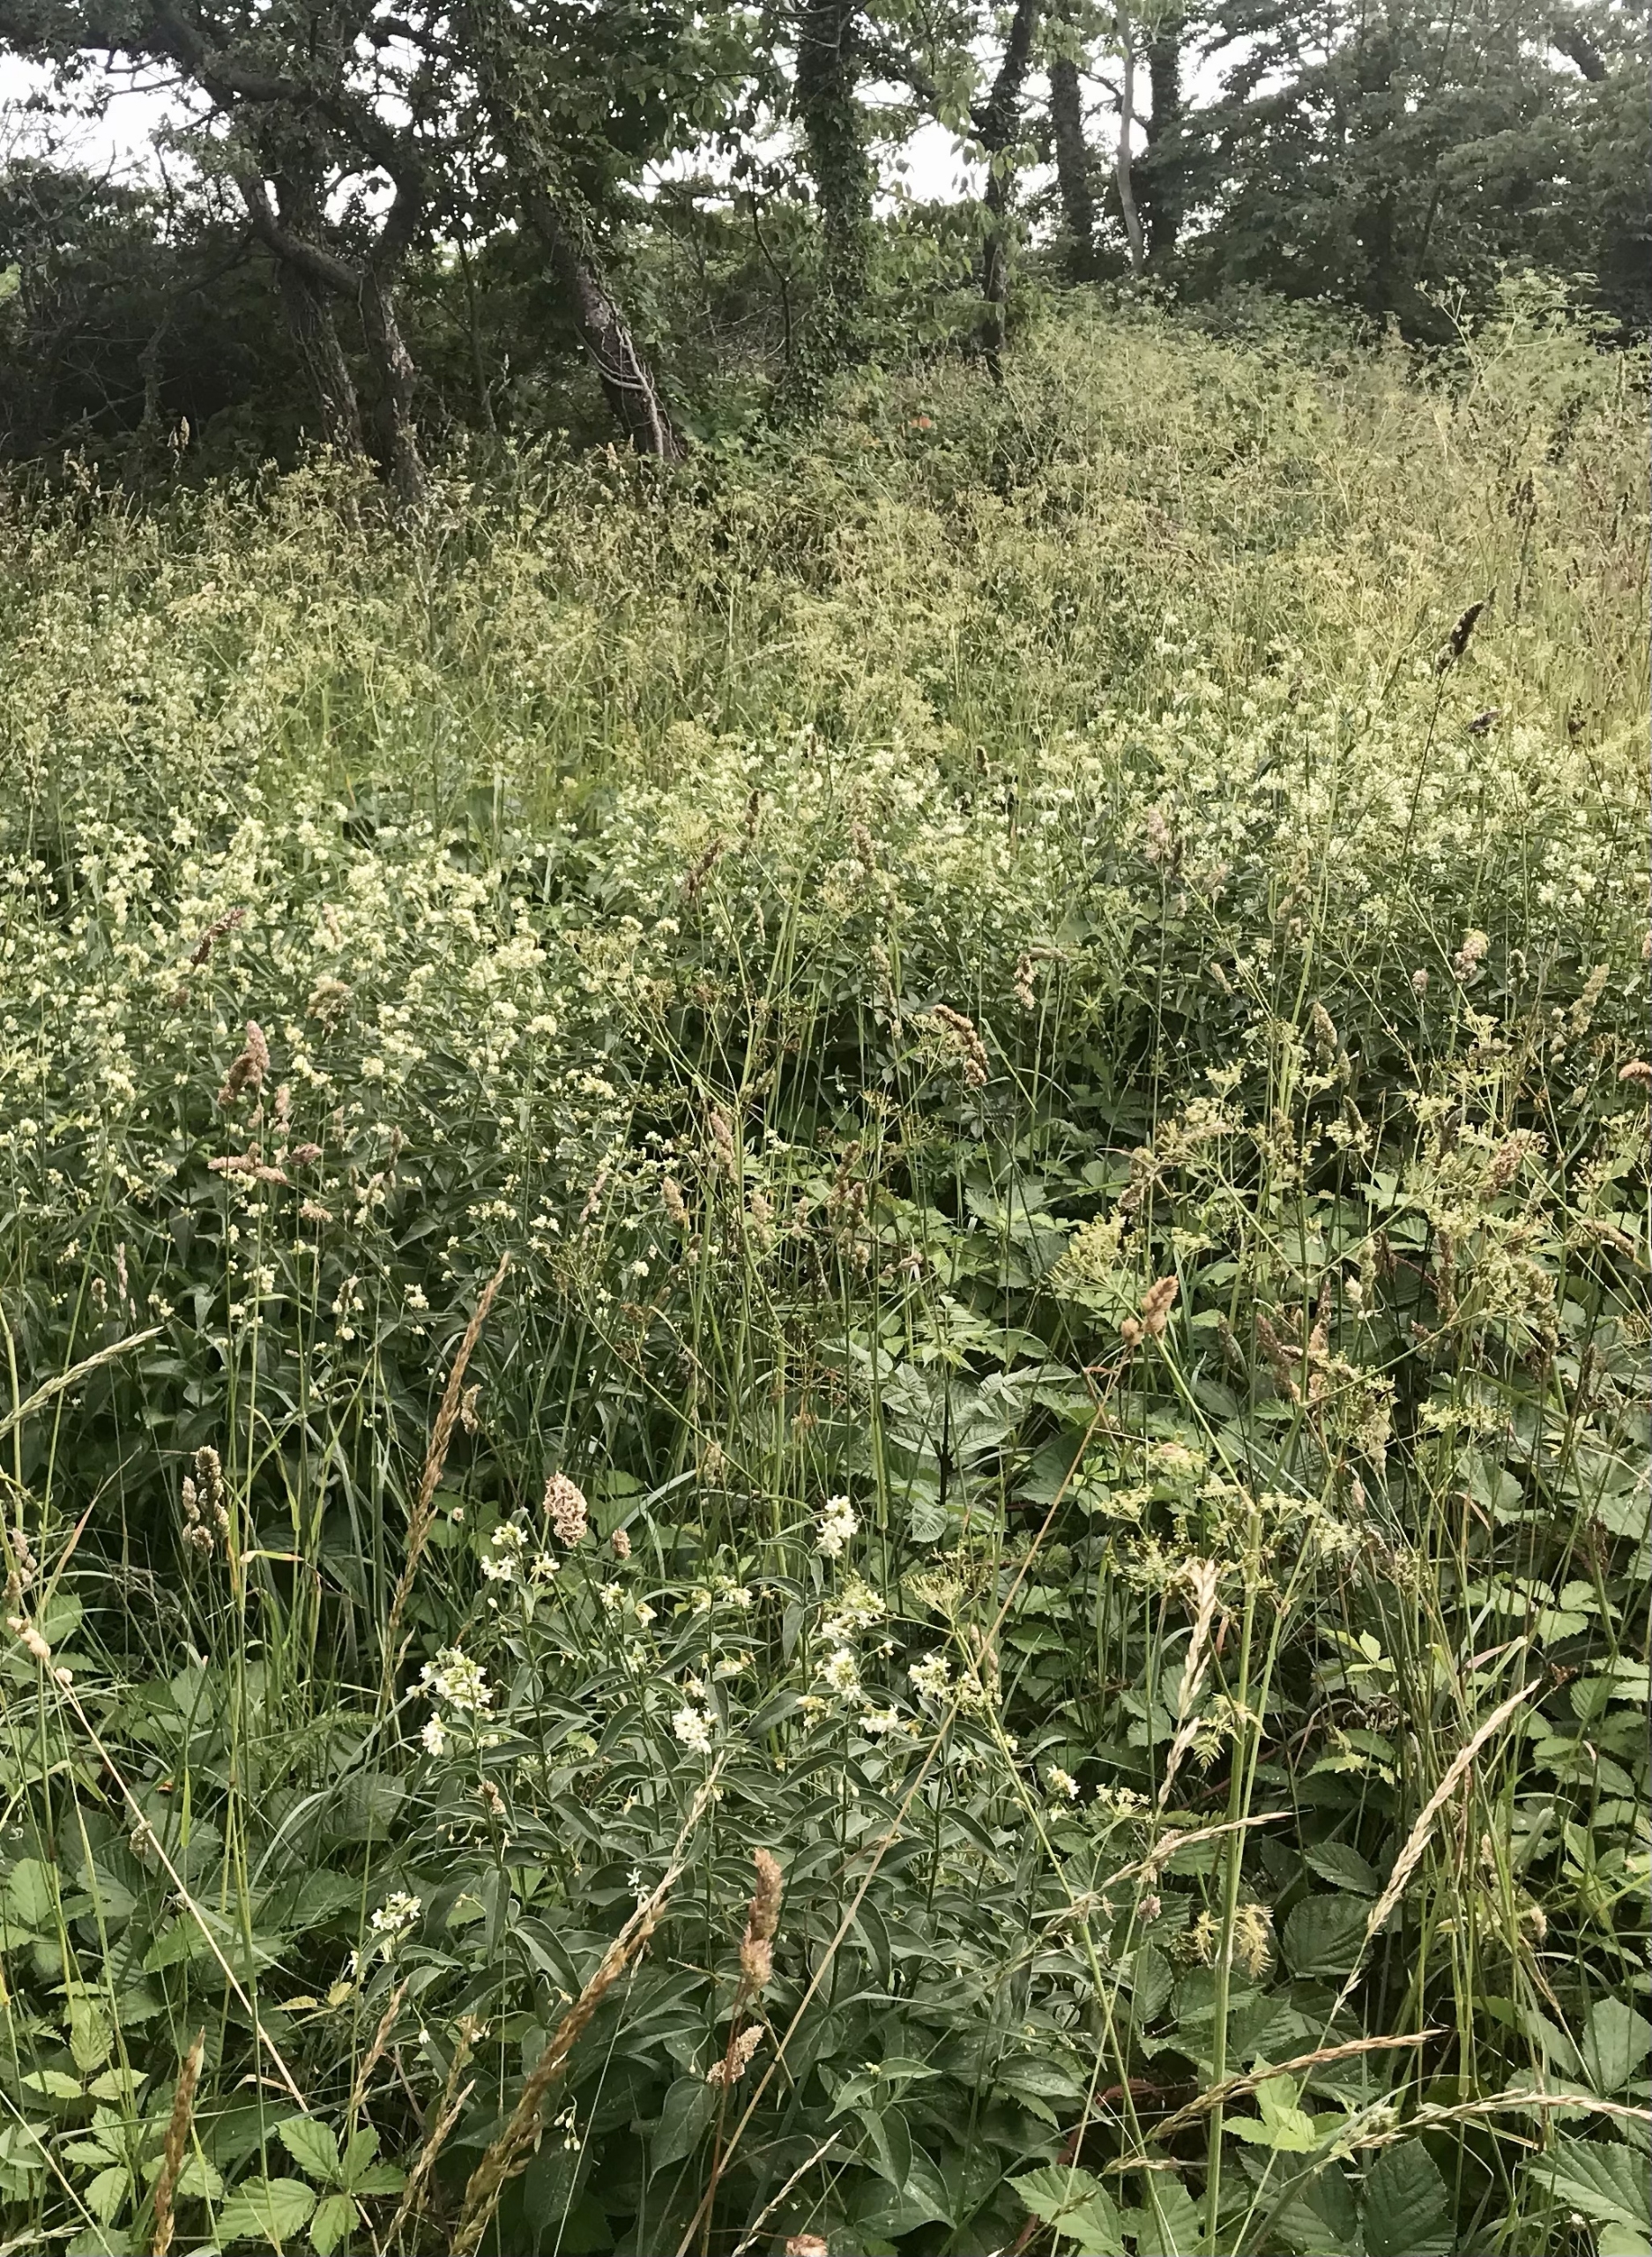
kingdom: Plantae
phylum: Tracheophyta
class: Magnoliopsida
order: Gentianales
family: Apocynaceae
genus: Vincetoxicum
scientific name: Vincetoxicum hirundinaria
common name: Svalerod
